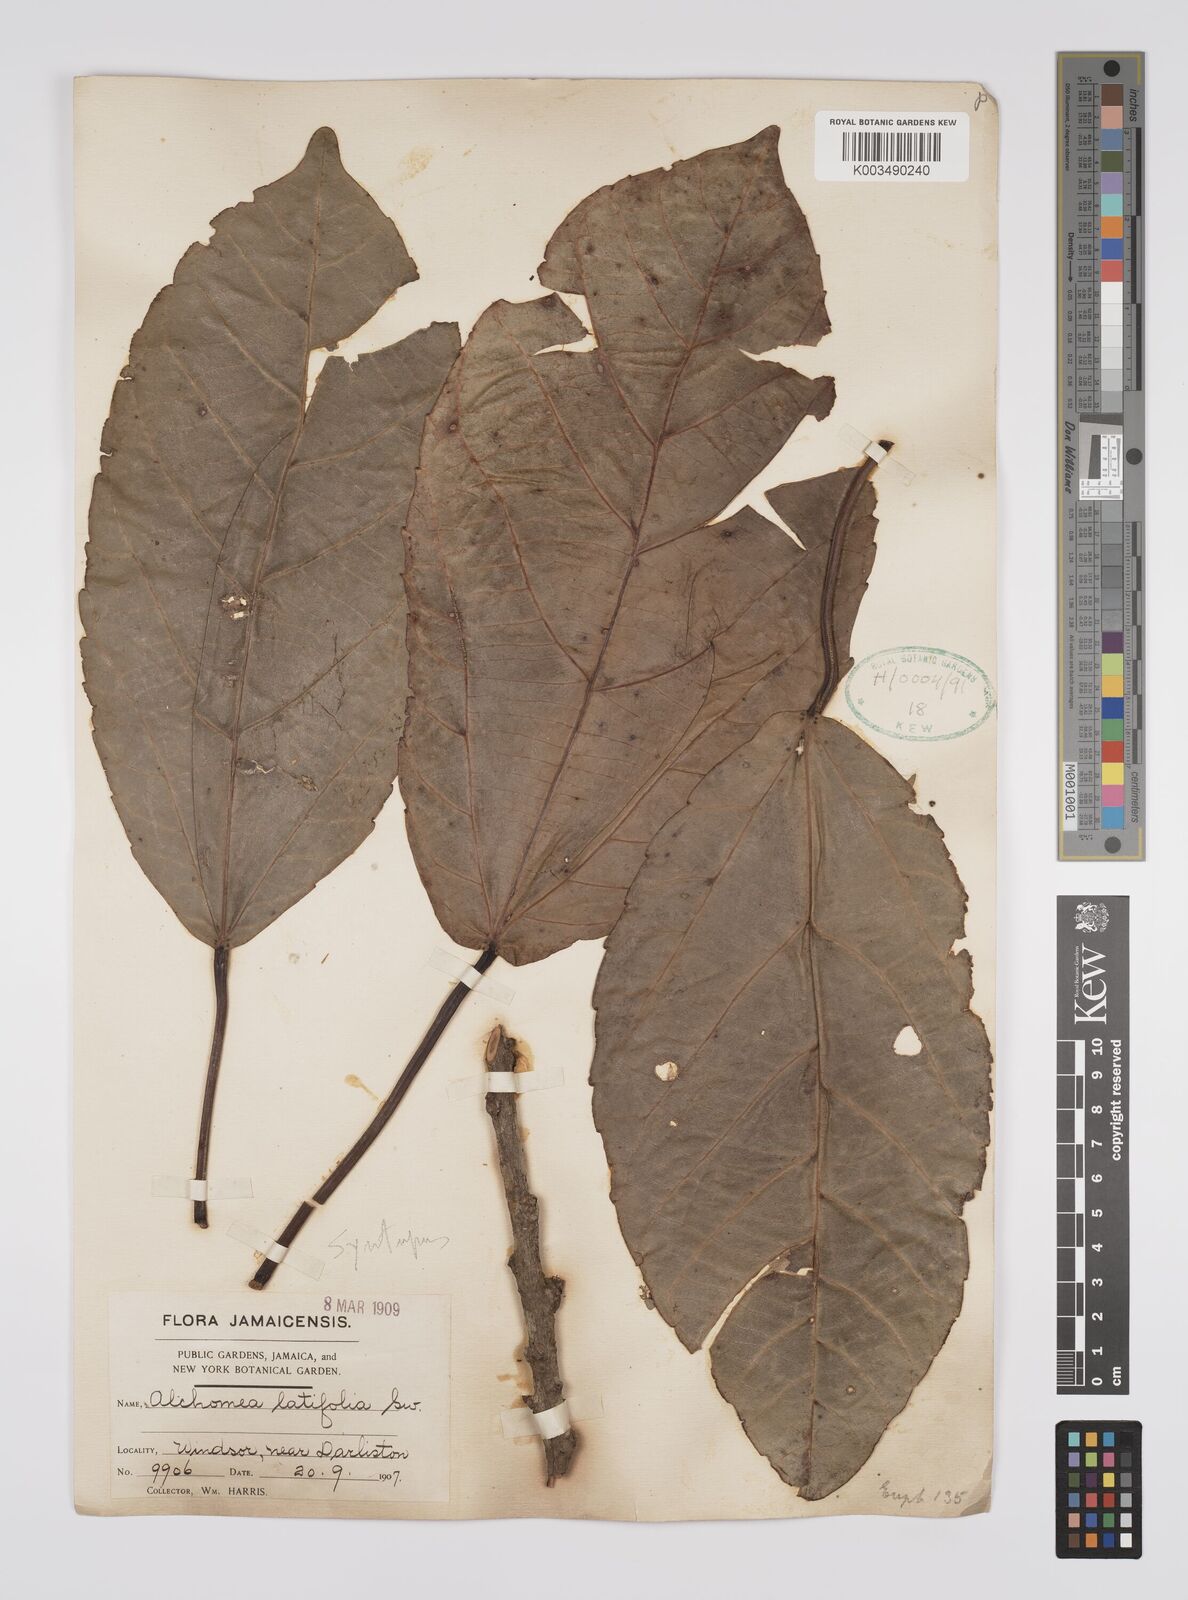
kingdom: Plantae
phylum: Tracheophyta
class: Magnoliopsida
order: Malpighiales
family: Euphorbiaceae
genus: Alchornea
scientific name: Alchornea latifolia
